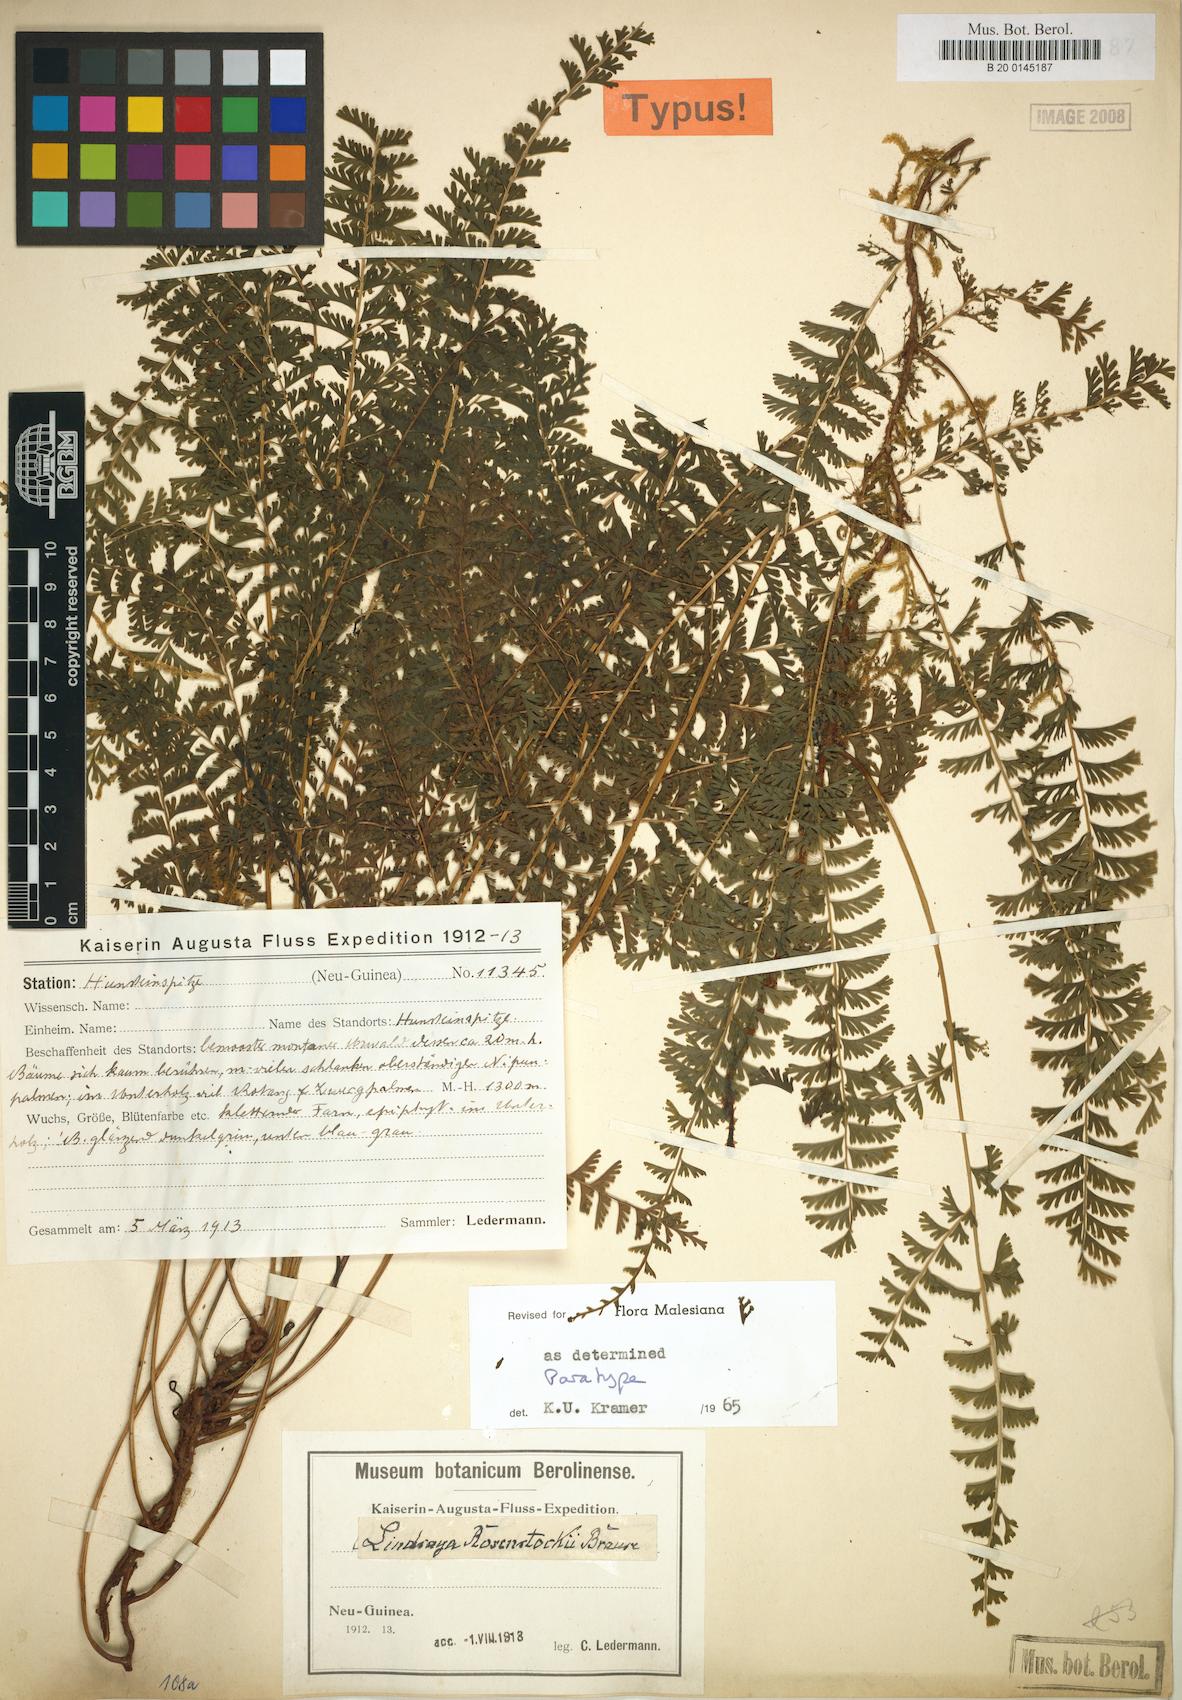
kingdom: Plantae
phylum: Tracheophyta
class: Polypodiopsida
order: Polypodiales
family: Lindsaeaceae
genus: Lindsaea
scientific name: Lindsaea rosenstockii
